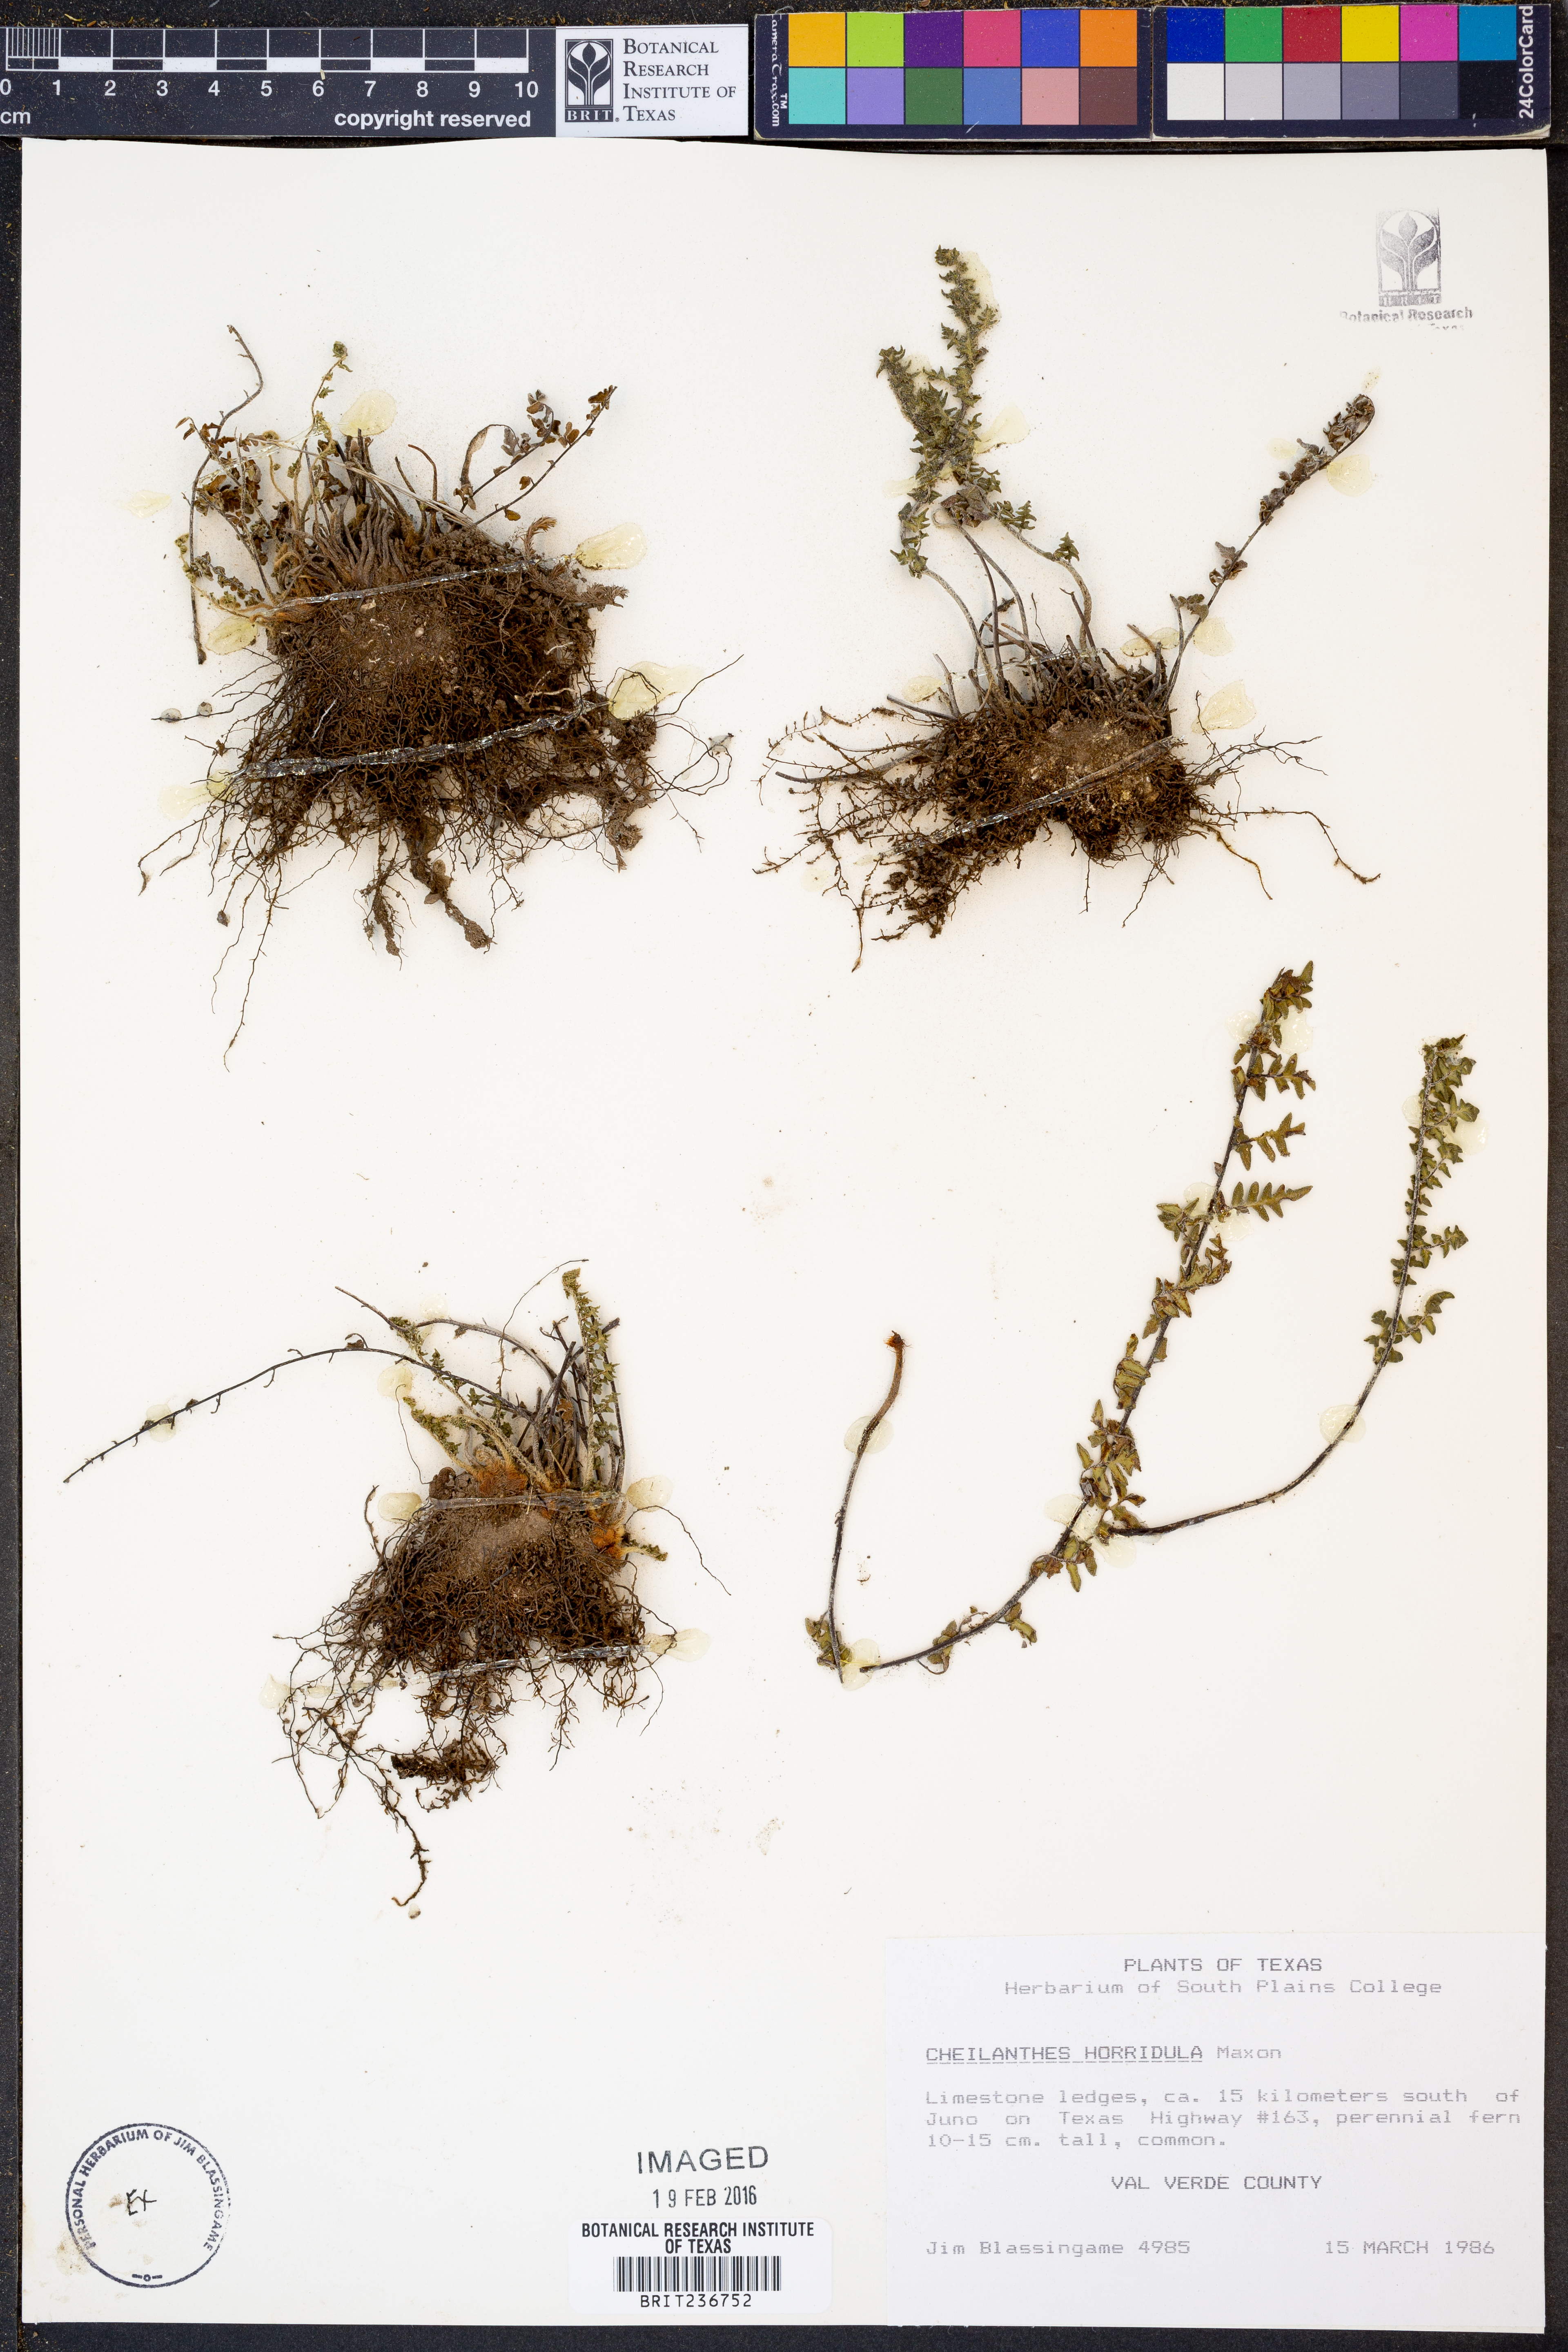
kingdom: Plantae
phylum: Tracheophyta
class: Polypodiopsida
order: Polypodiales
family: Pteridaceae
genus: Myriopteris
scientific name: Myriopteris scabra
